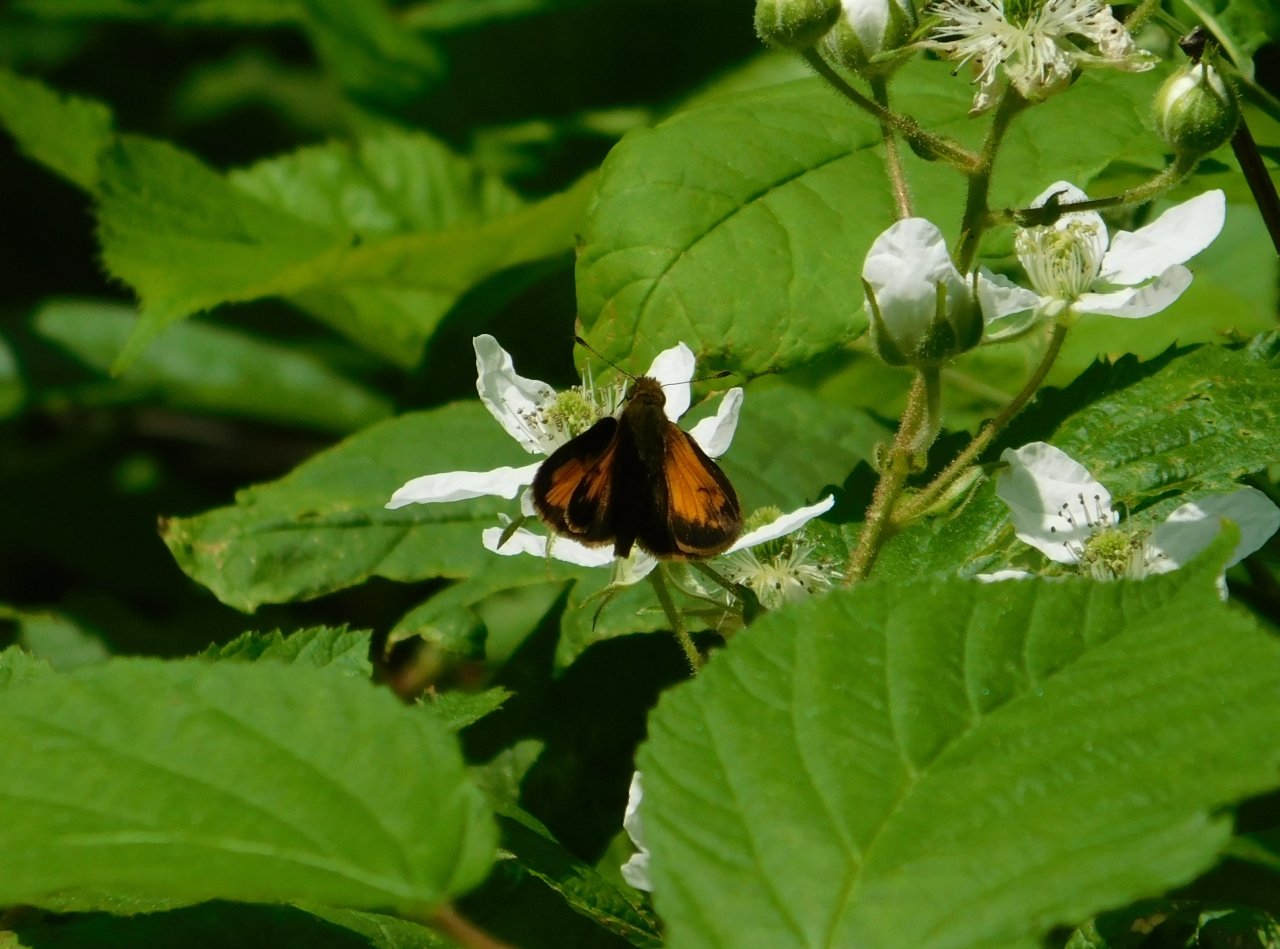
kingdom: Animalia
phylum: Arthropoda
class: Insecta
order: Lepidoptera
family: Hesperiidae
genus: Lon
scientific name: Lon hobomok
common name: Hobomok Skipper
